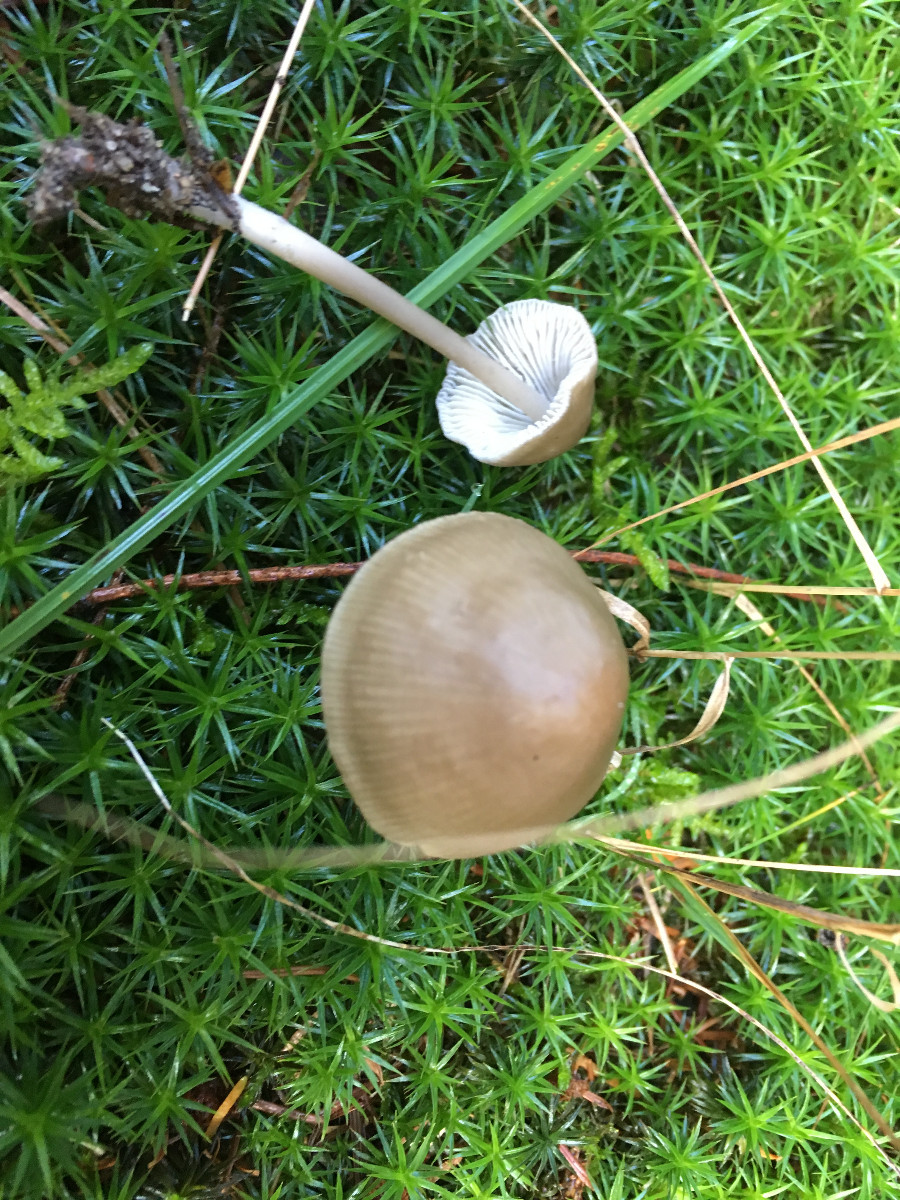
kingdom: Fungi
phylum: Basidiomycota
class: Agaricomycetes
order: Agaricales
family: Mycenaceae
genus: Mycena
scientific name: Mycena galericulata
